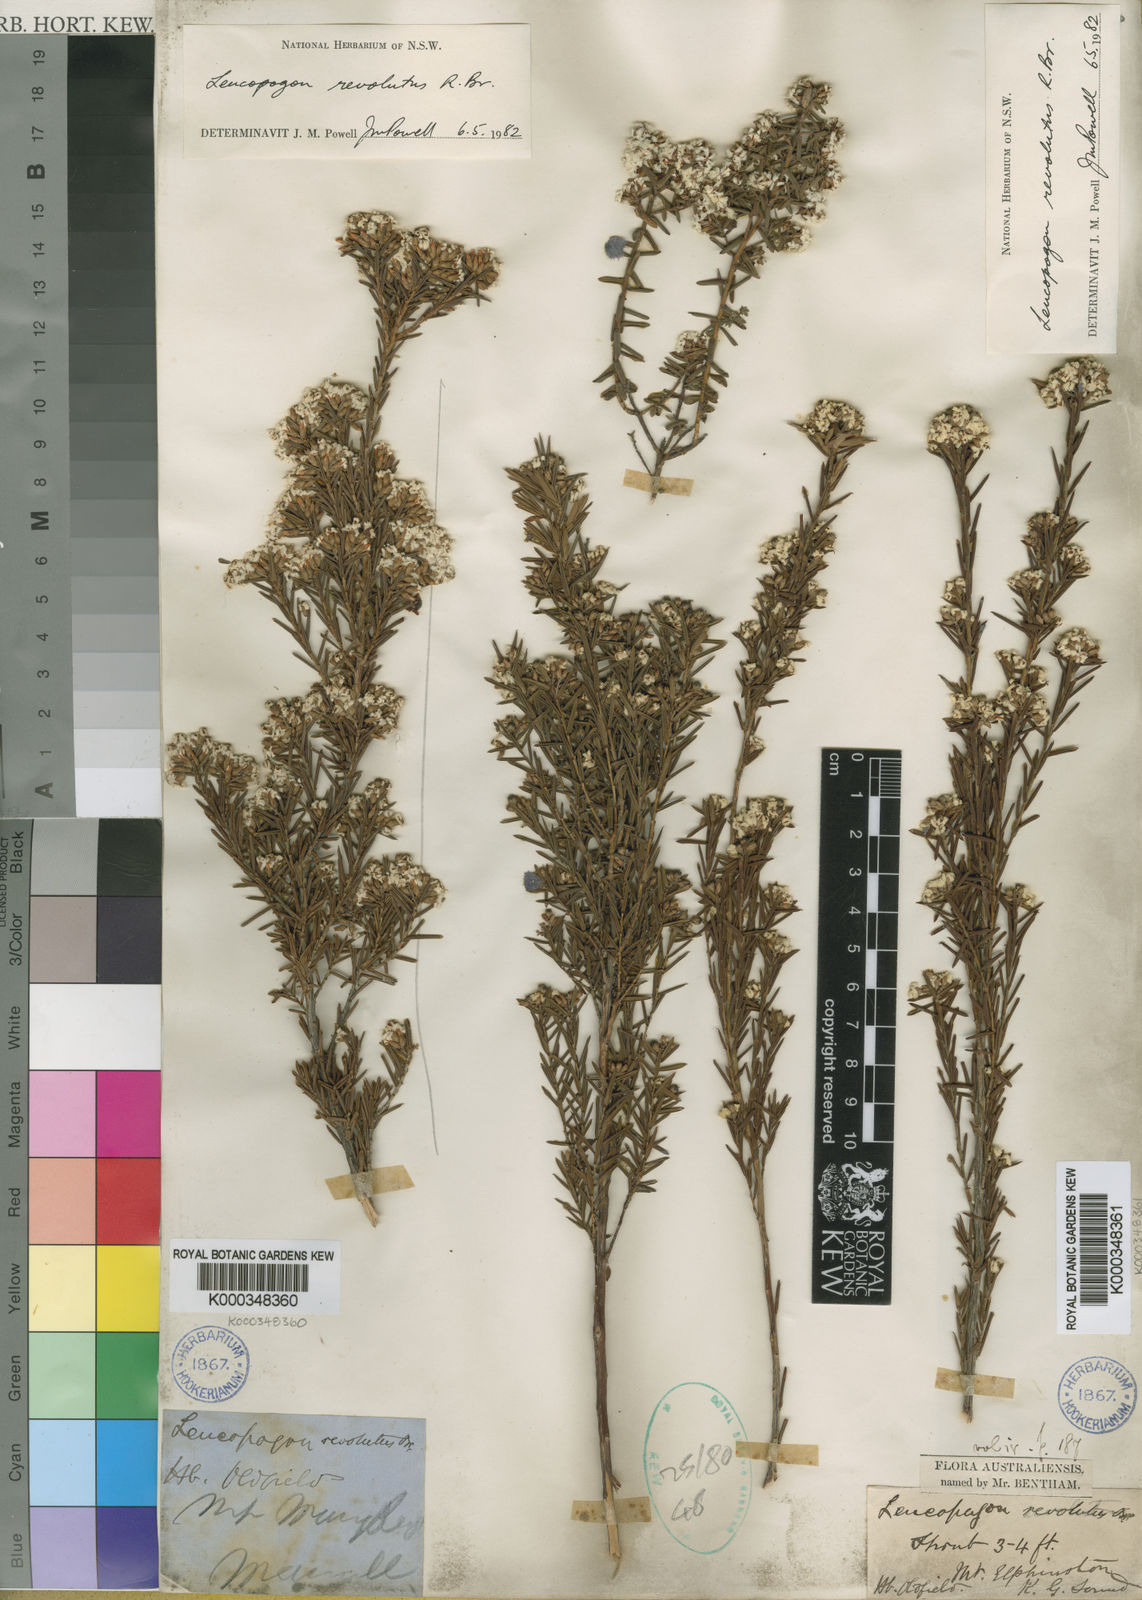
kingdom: Plantae
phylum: Tracheophyta
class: Magnoliopsida
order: Ericales
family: Ericaceae
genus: Leucopogon
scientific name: Leucopogon obovatus
